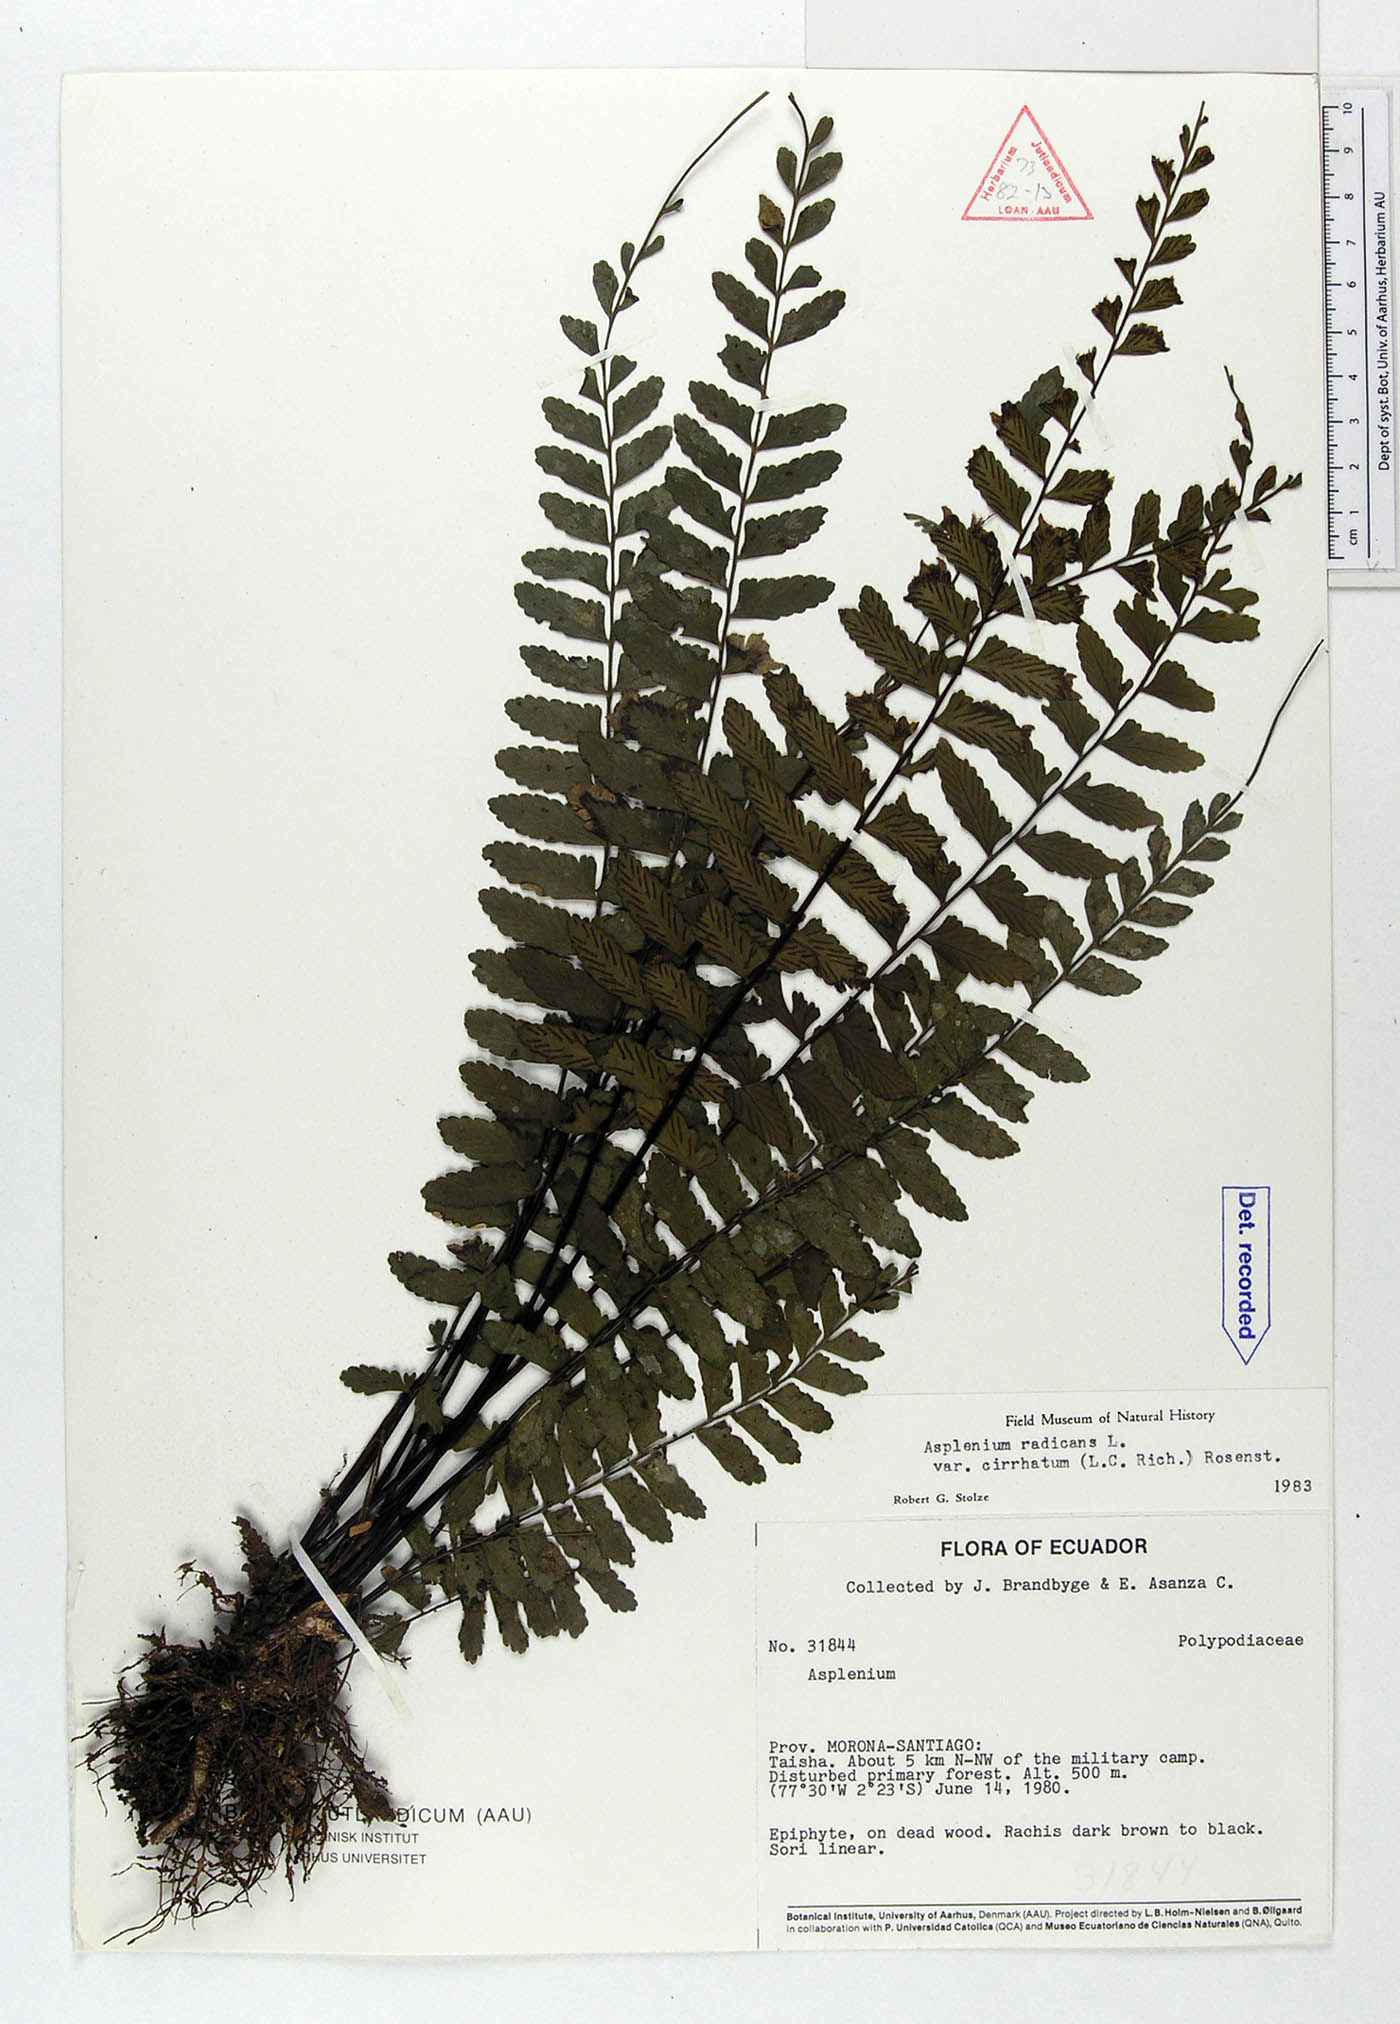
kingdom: Plantae
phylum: Tracheophyta
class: Polypodiopsida
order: Polypodiales
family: Aspleniaceae
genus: Asplenium
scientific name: Asplenium cirrhatum
